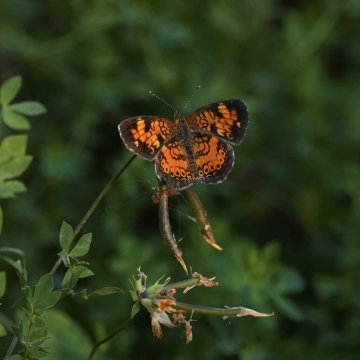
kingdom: Animalia
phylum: Arthropoda
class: Insecta
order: Lepidoptera
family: Nymphalidae
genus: Phyciodes
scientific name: Phyciodes tharos
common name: Northern Crescent
